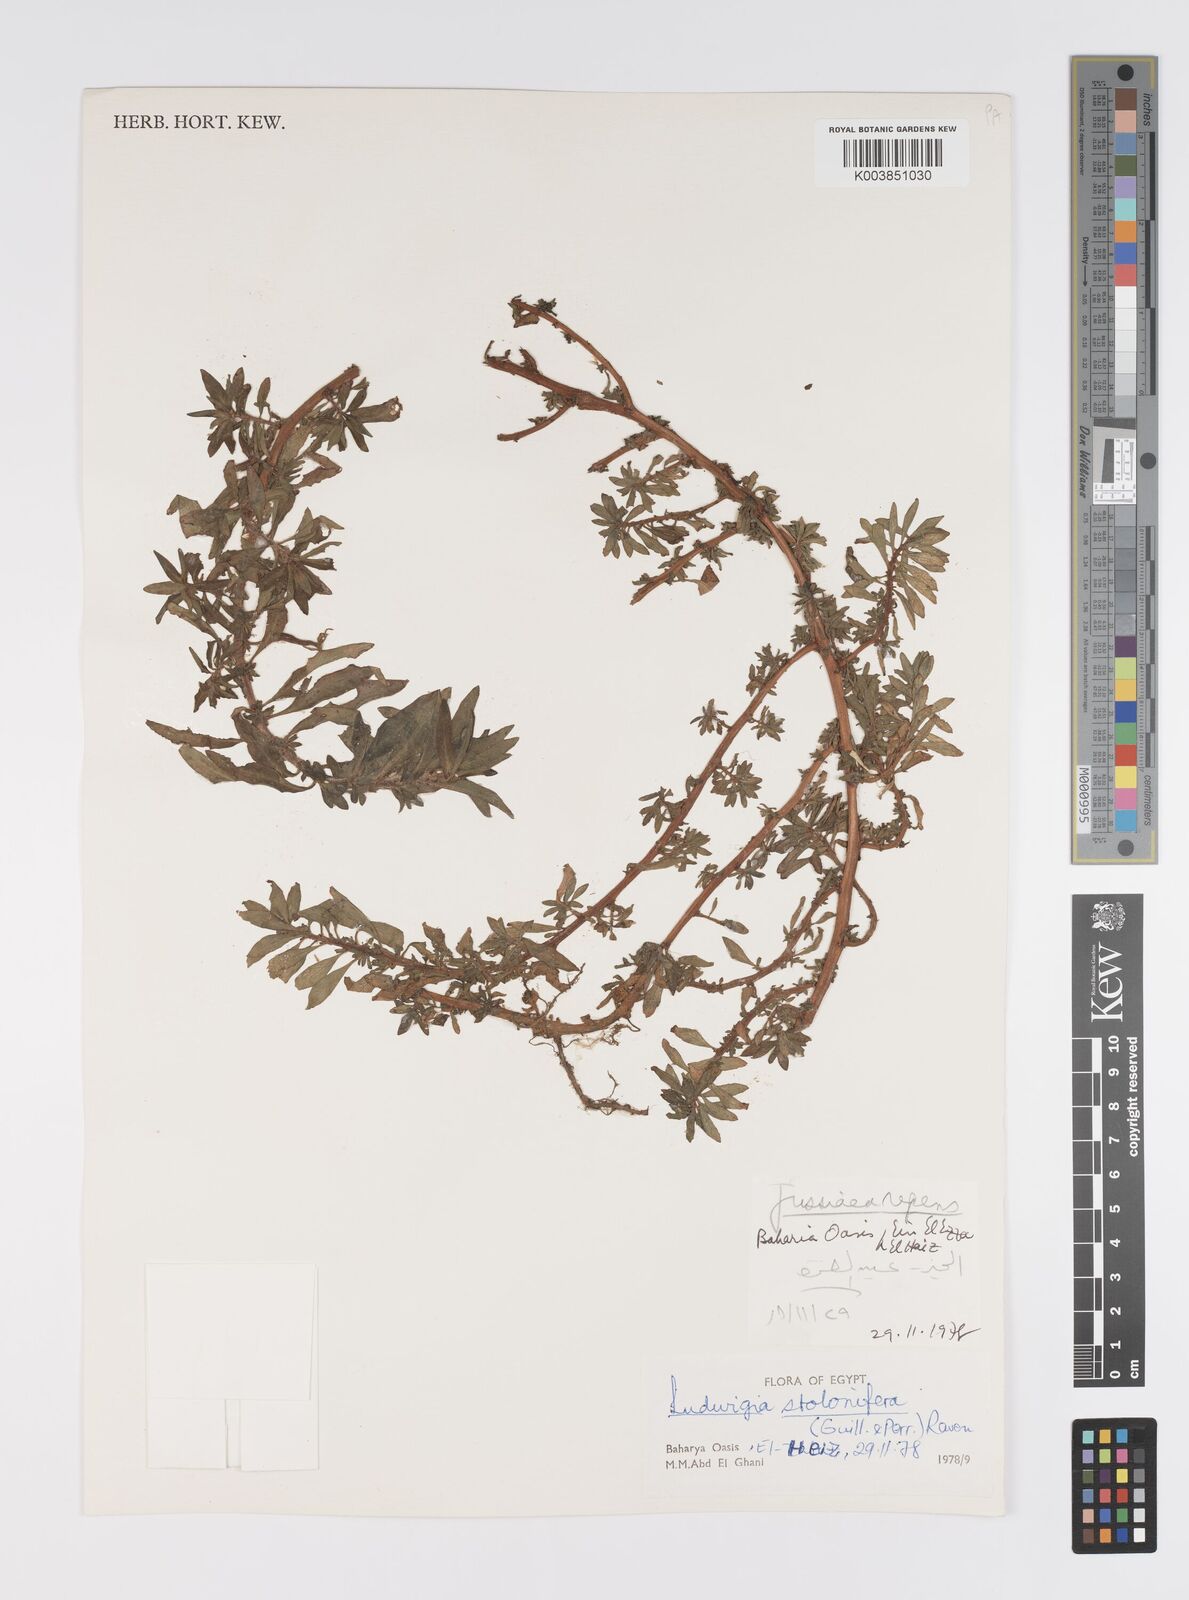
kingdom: Plantae
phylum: Tracheophyta
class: Magnoliopsida
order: Myrtales
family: Onagraceae
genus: Ludwigia
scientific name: Ludwigia adscendens
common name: Creeping water primrose
